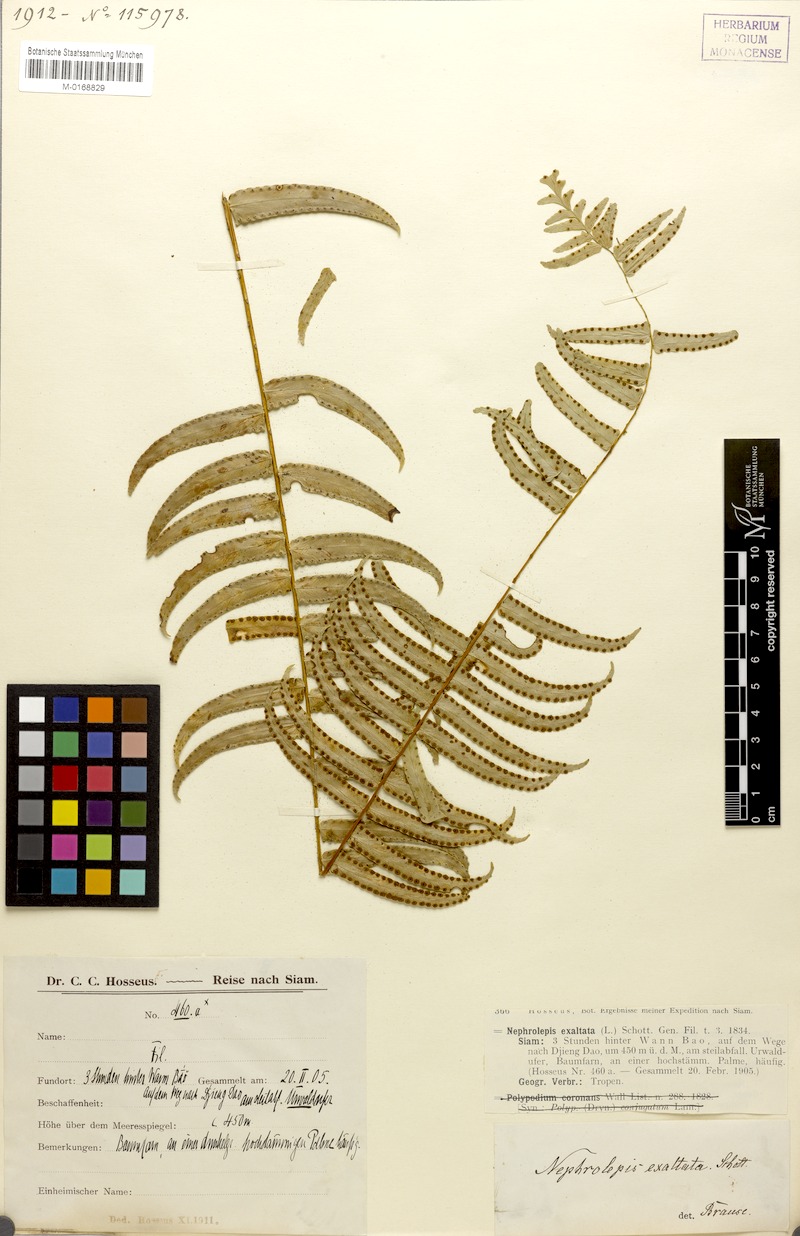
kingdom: Plantae
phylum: Tracheophyta
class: Polypodiopsida
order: Polypodiales
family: Nephrolepidaceae
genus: Nephrolepis
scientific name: Nephrolepis exaltata
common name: Sword fern
